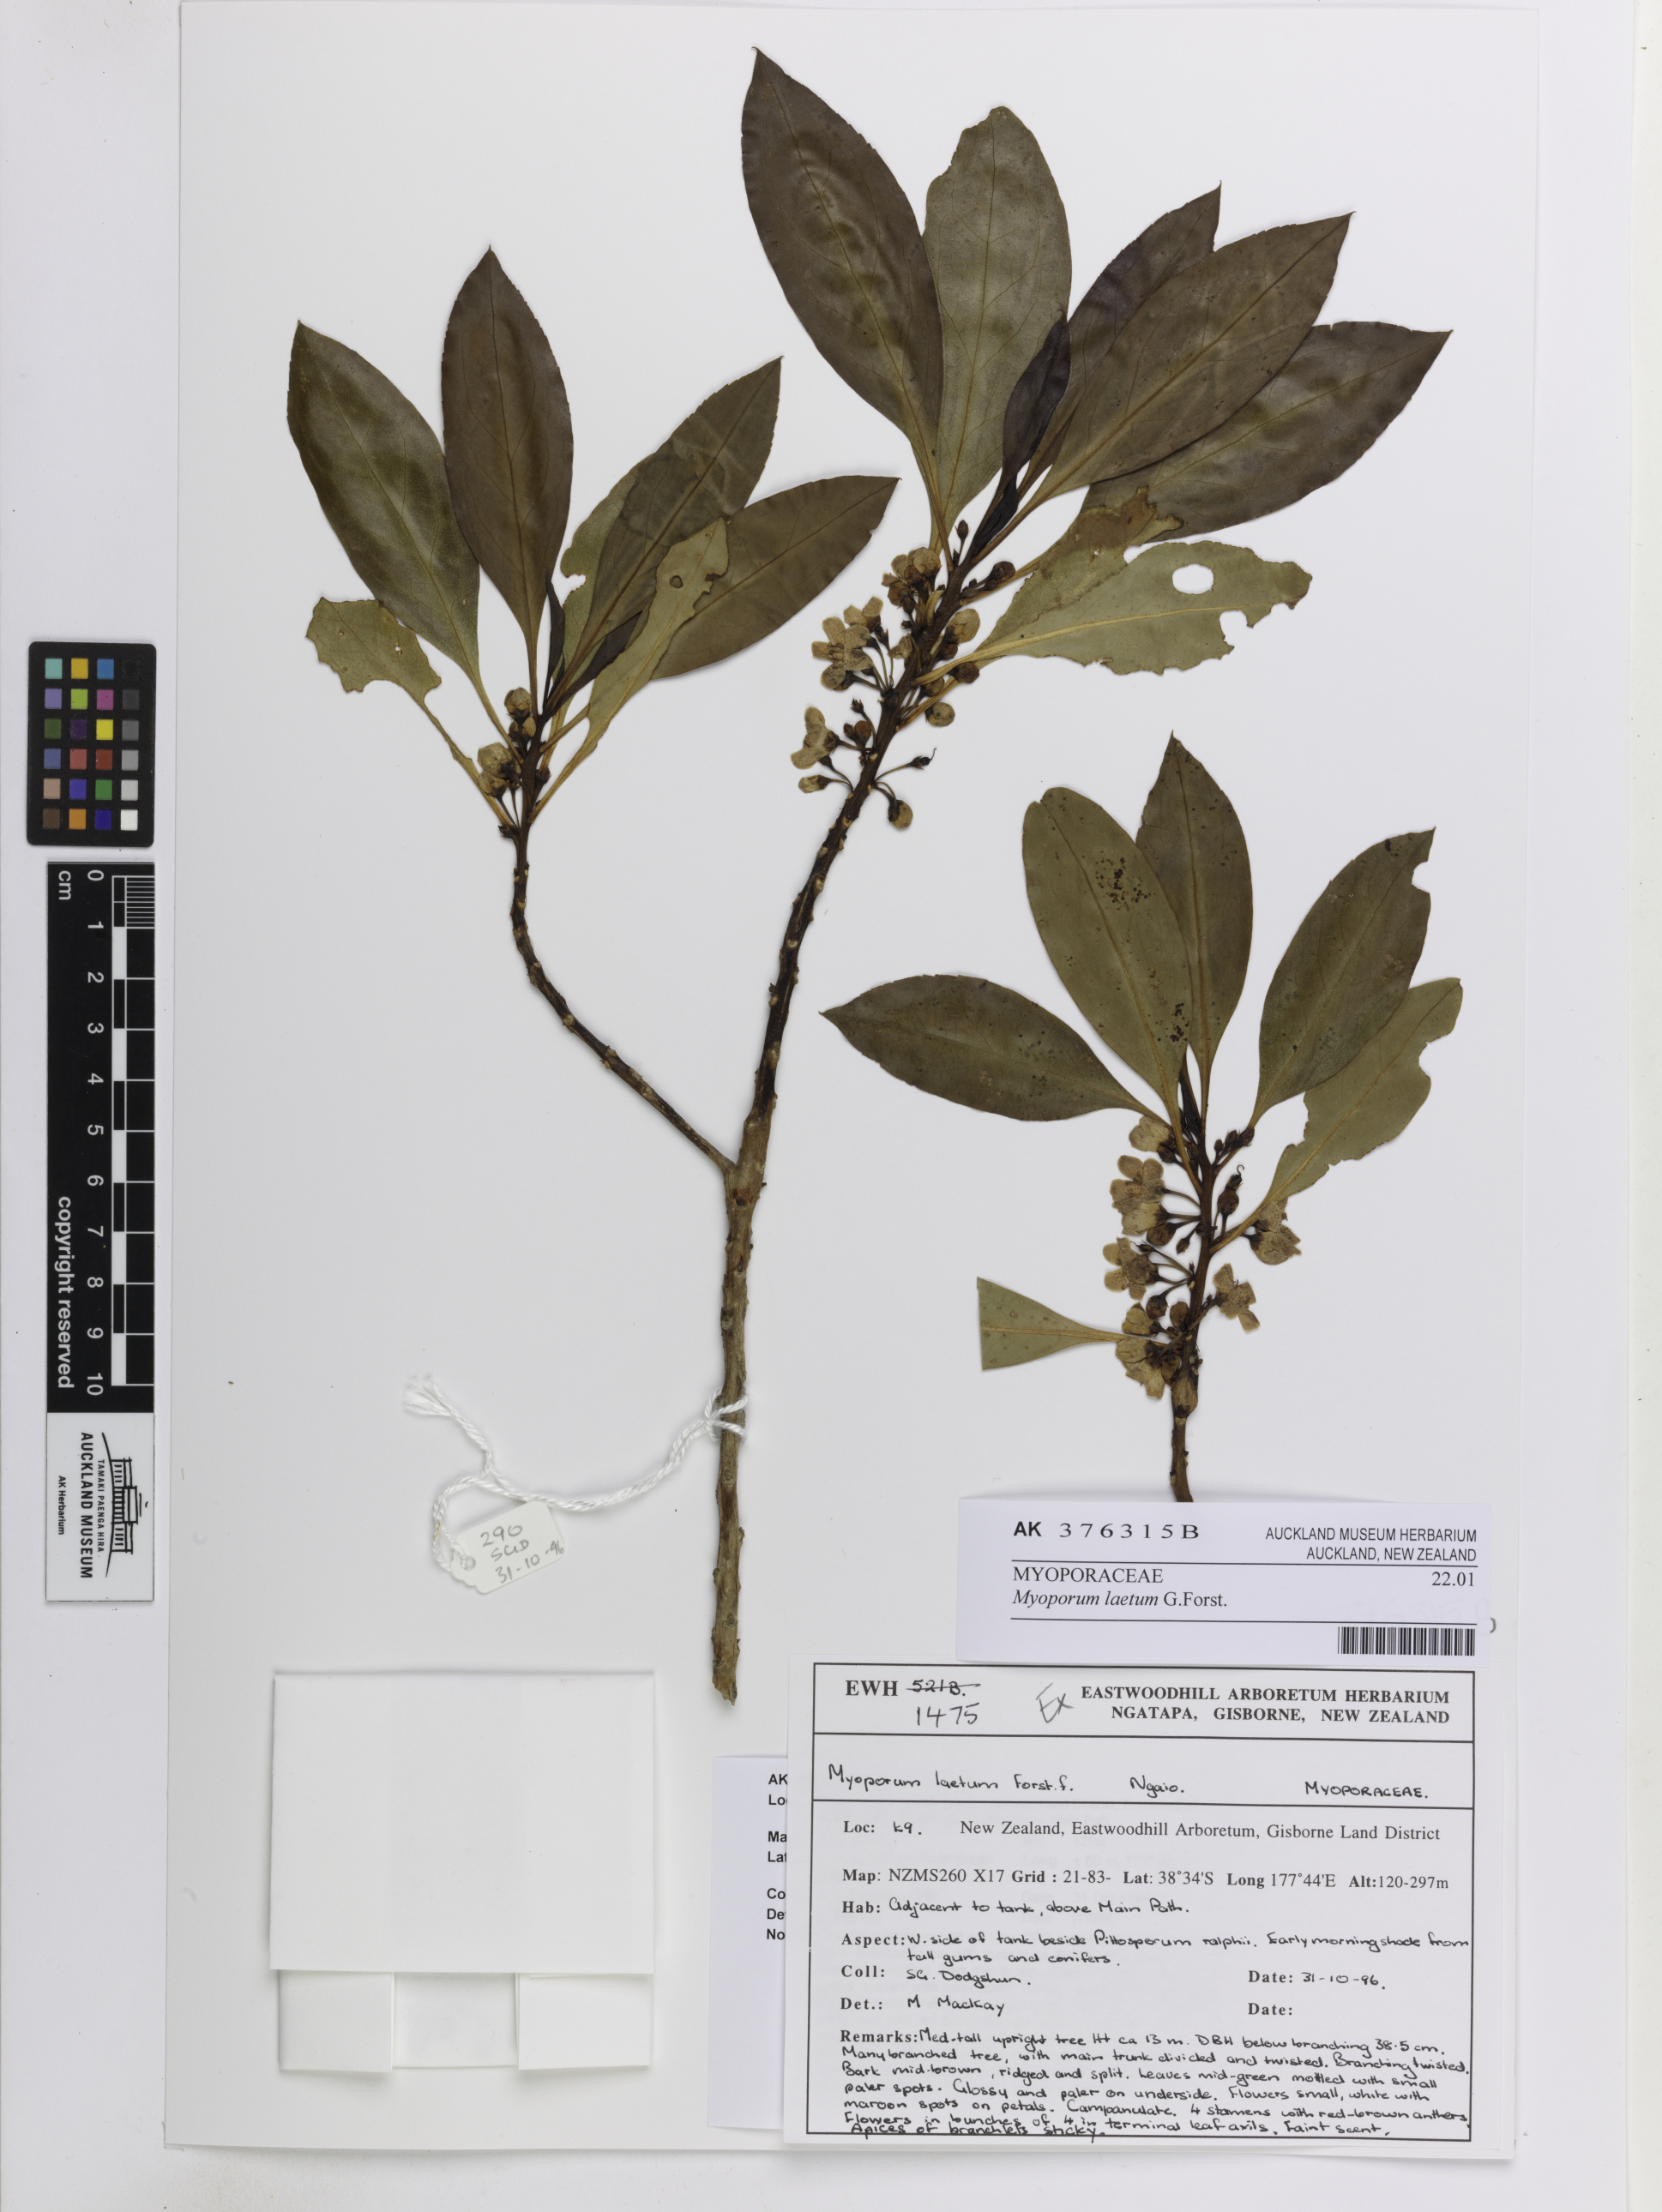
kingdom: Plantae
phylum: Tracheophyta
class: Magnoliopsida
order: Lamiales
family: Scrophulariaceae
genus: Myoporum
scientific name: Myoporum laetum
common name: Ngaio tree
